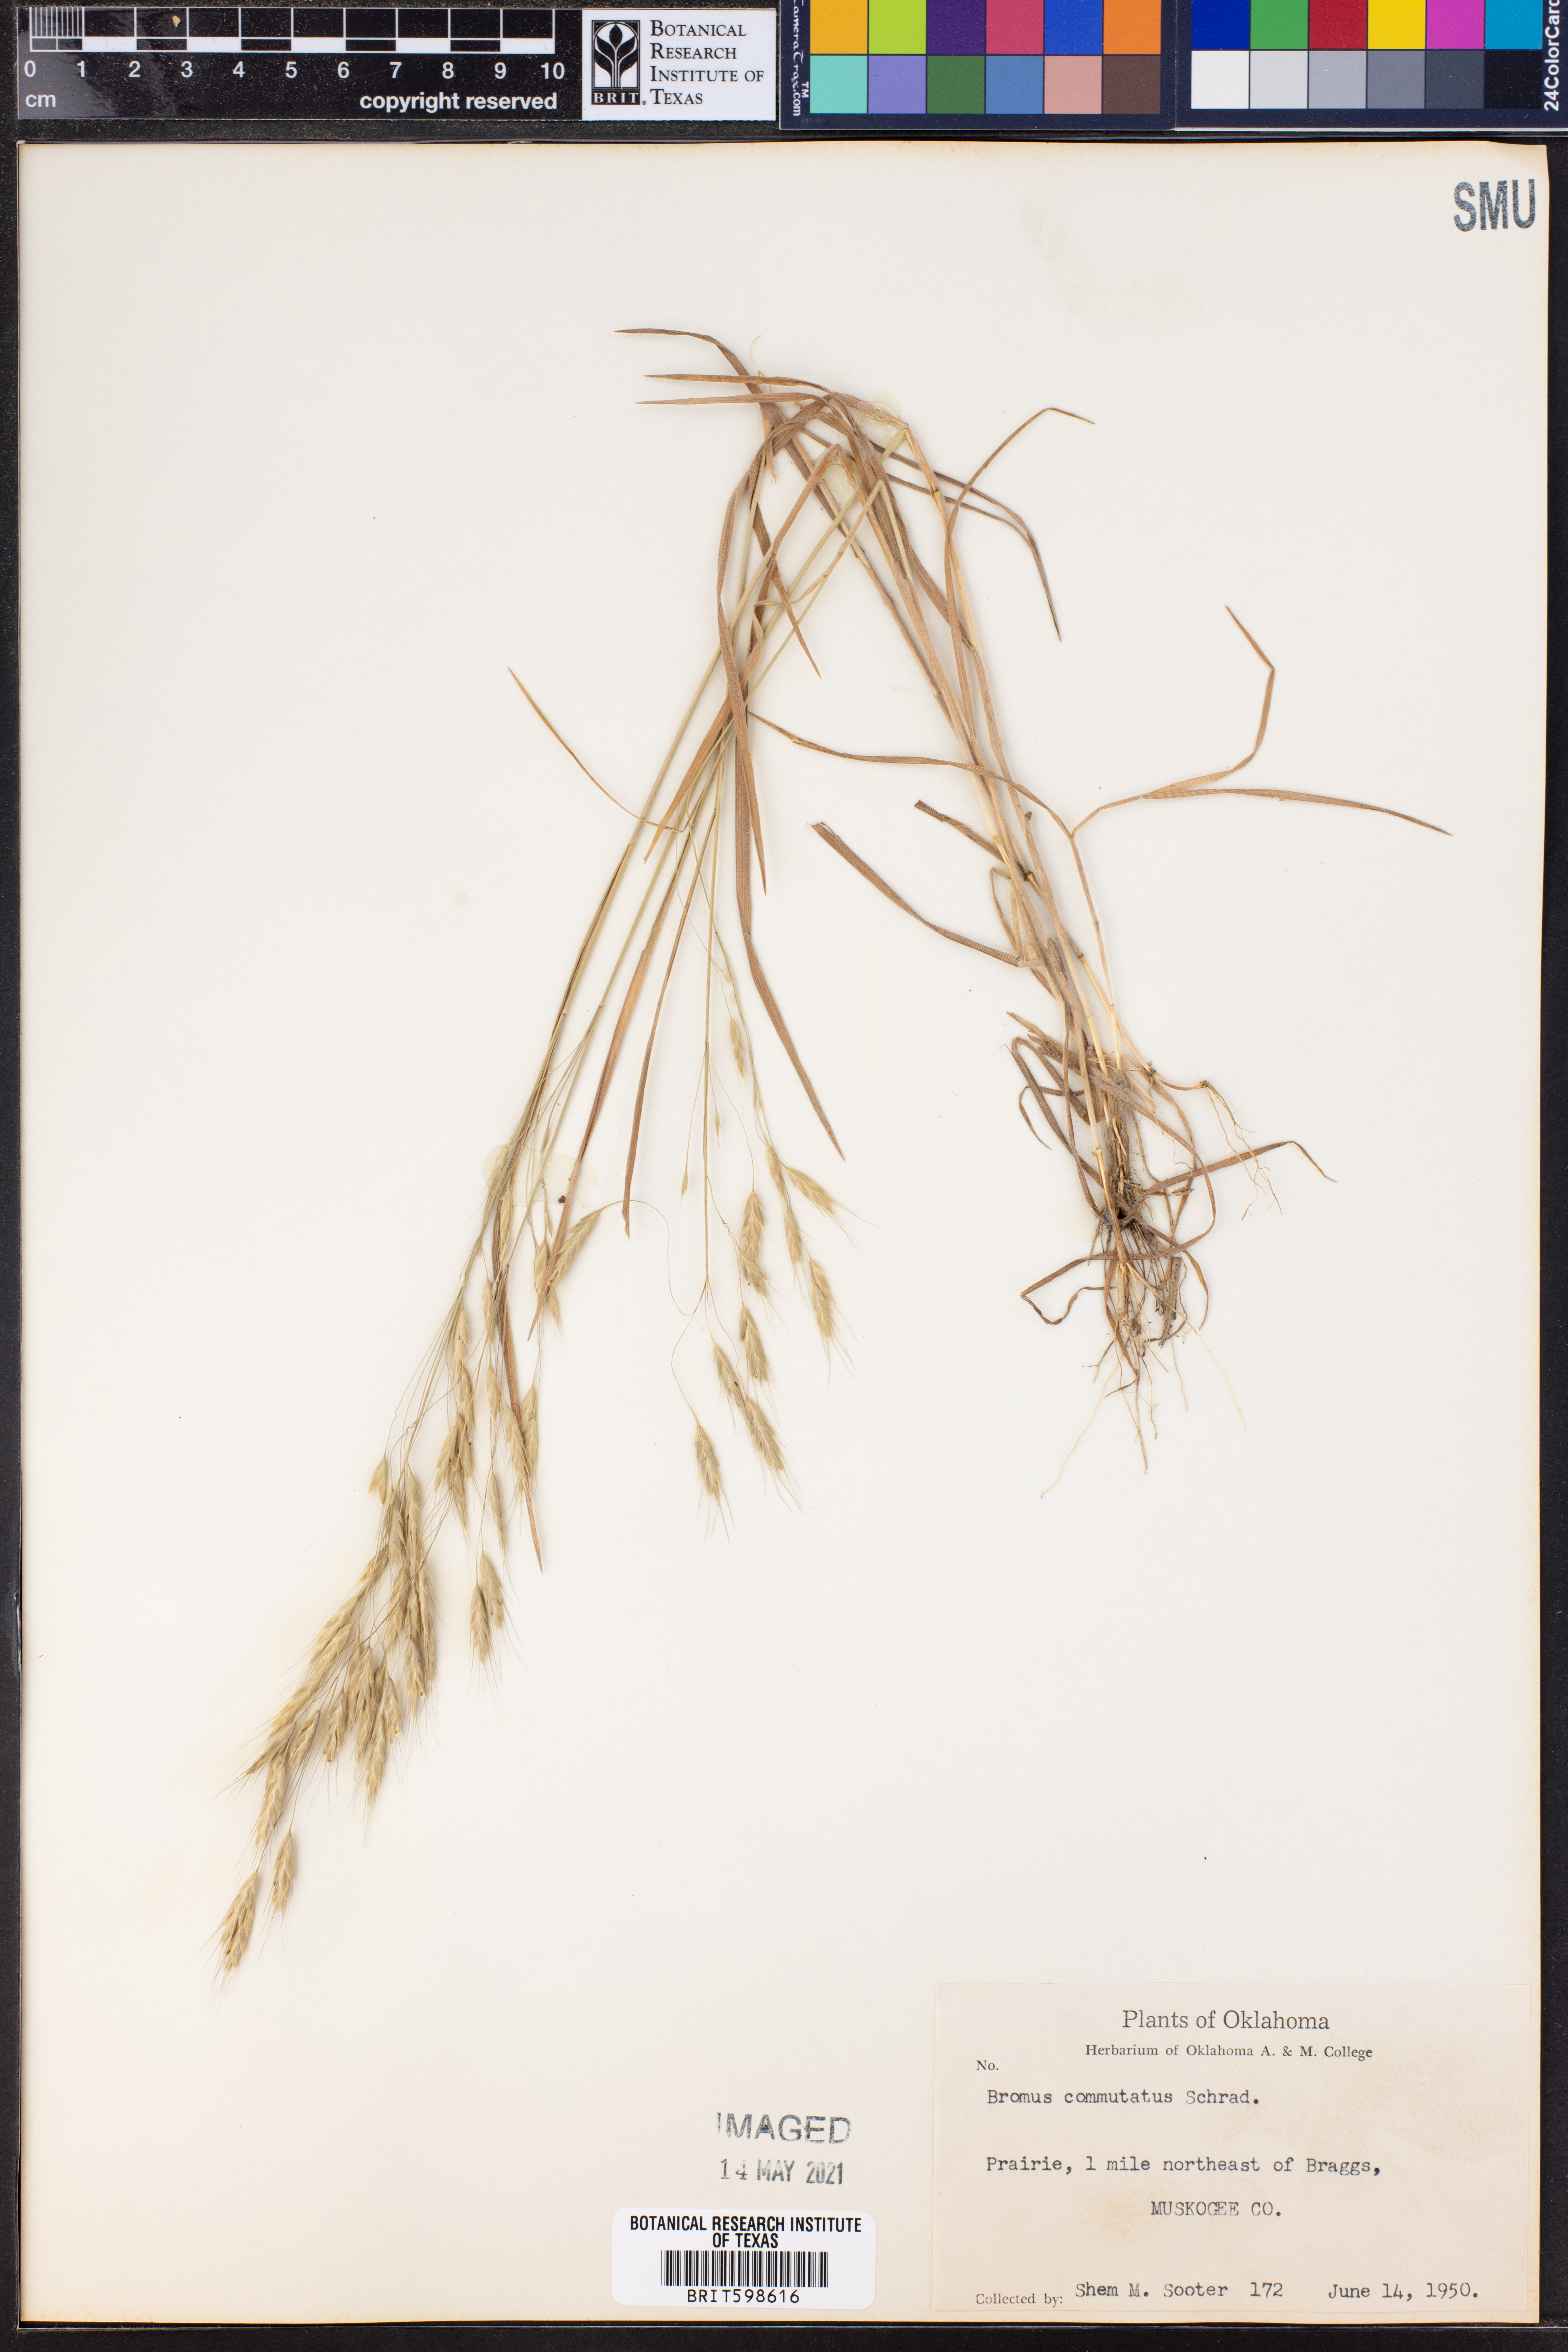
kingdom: Plantae
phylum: Tracheophyta
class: Liliopsida
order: Poales
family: Poaceae
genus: Bromus
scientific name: Bromus commutatus
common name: Meadow brome
